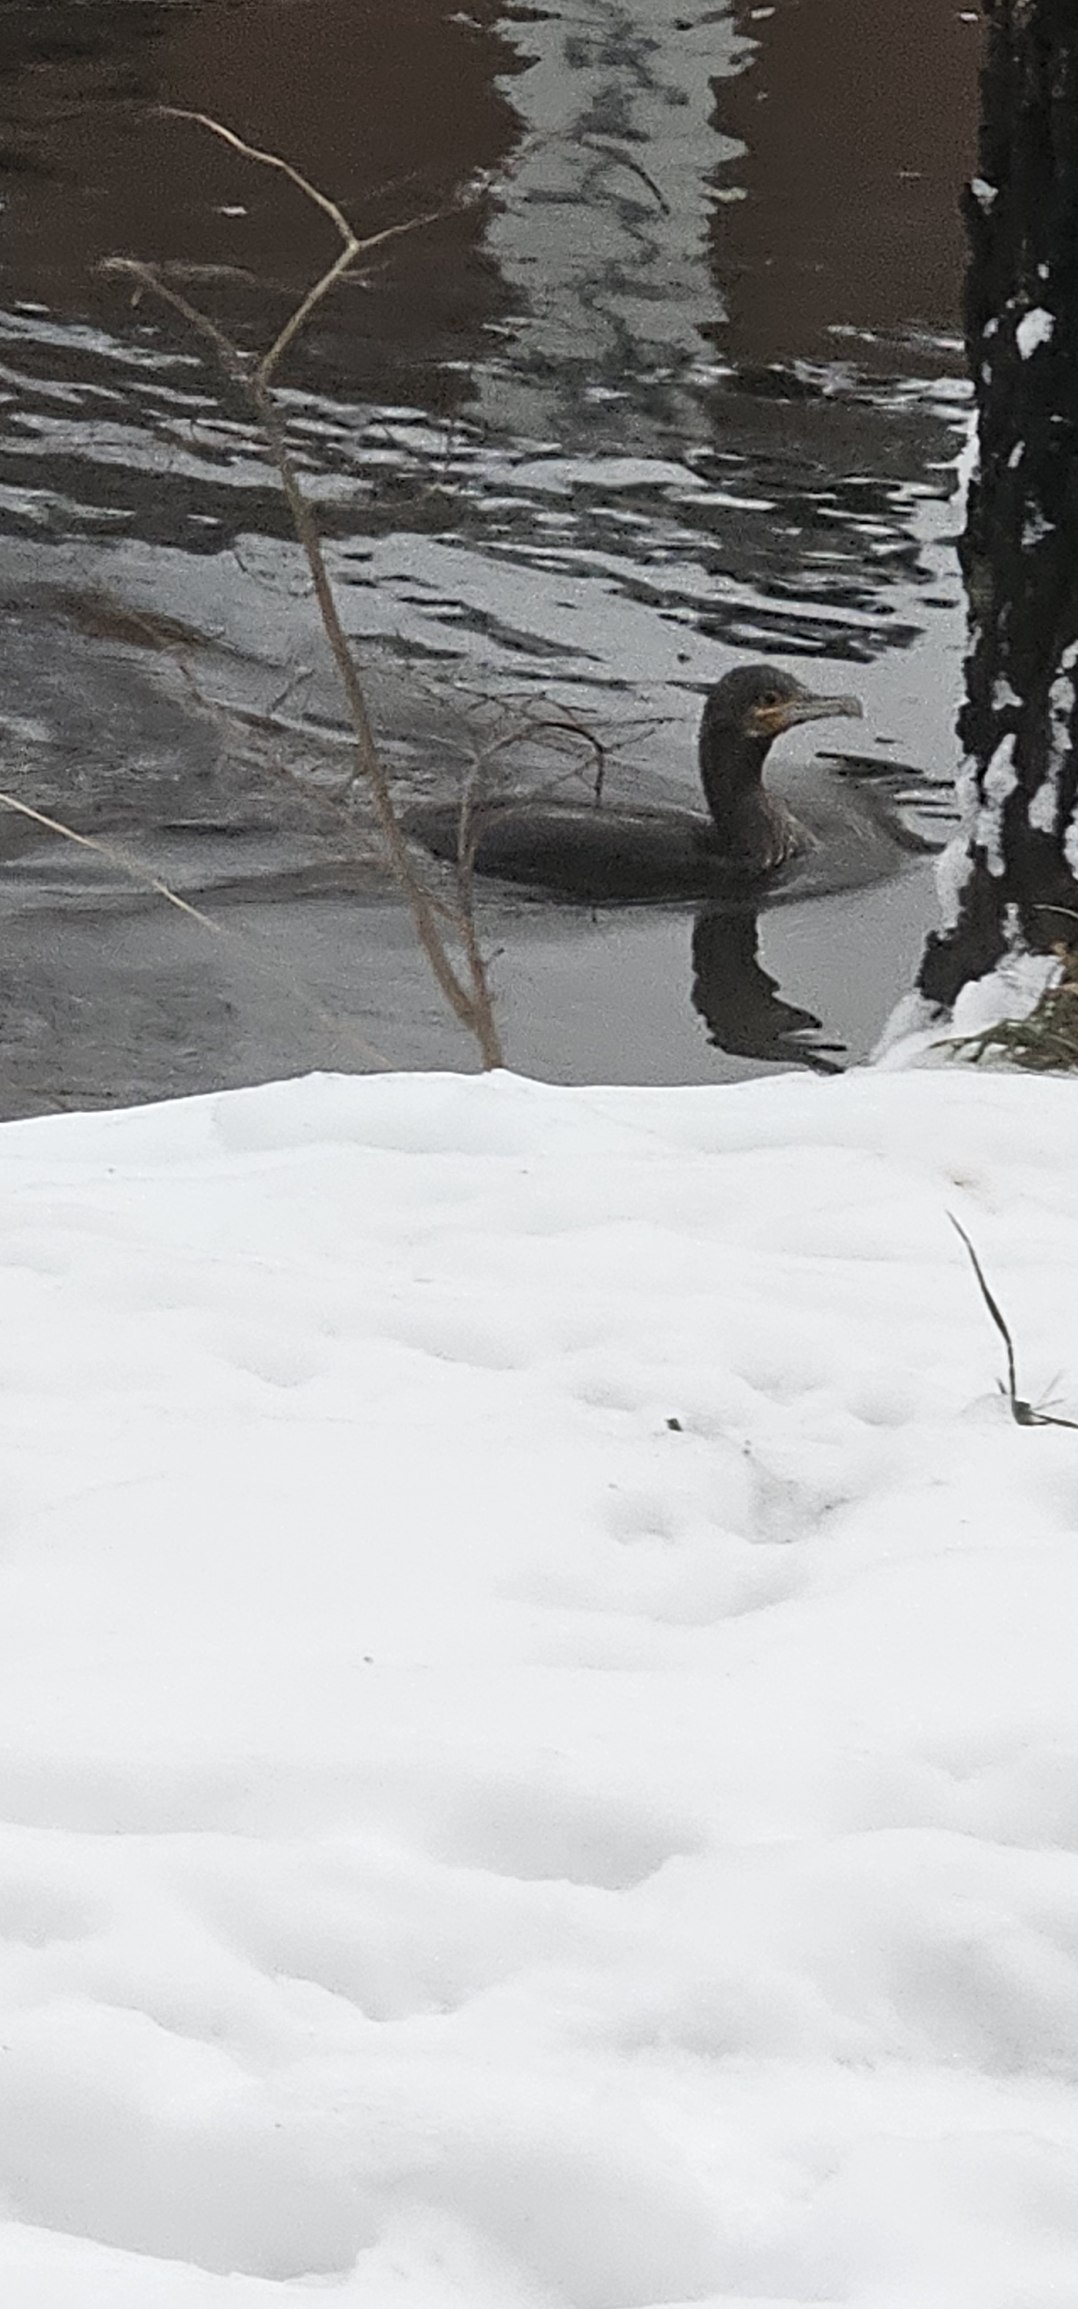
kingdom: Animalia
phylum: Chordata
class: Aves
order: Suliformes
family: Phalacrocoracidae
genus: Phalacrocorax
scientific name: Phalacrocorax carbo
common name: Skarv
